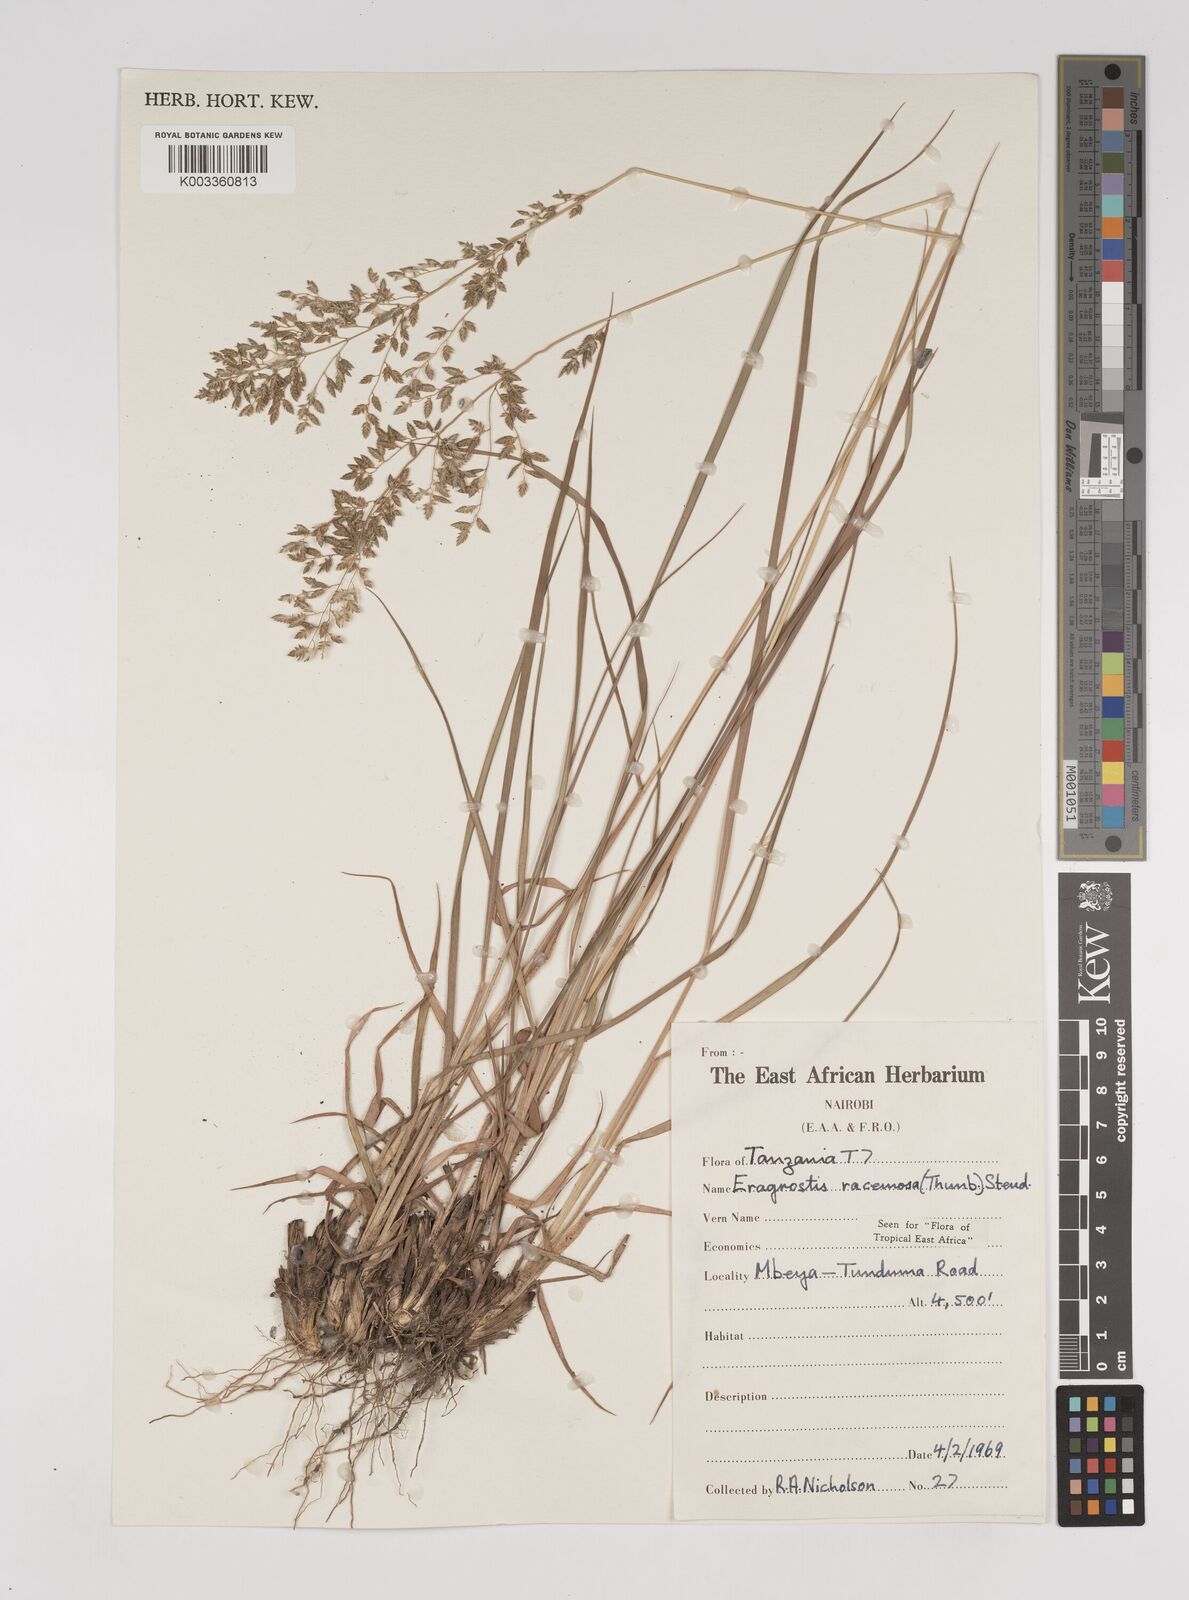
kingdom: Plantae
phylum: Tracheophyta
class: Liliopsida
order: Poales
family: Poaceae
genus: Eragrostis
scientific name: Eragrostis racemosa
